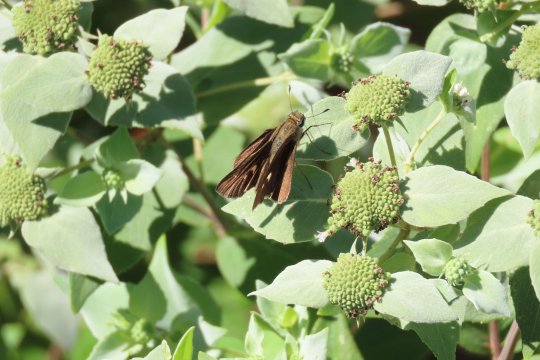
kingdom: Animalia
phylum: Arthropoda
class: Insecta
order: Lepidoptera
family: Hesperiidae
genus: Panoquina
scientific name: Panoquina ocola
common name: Ocola Skipper
